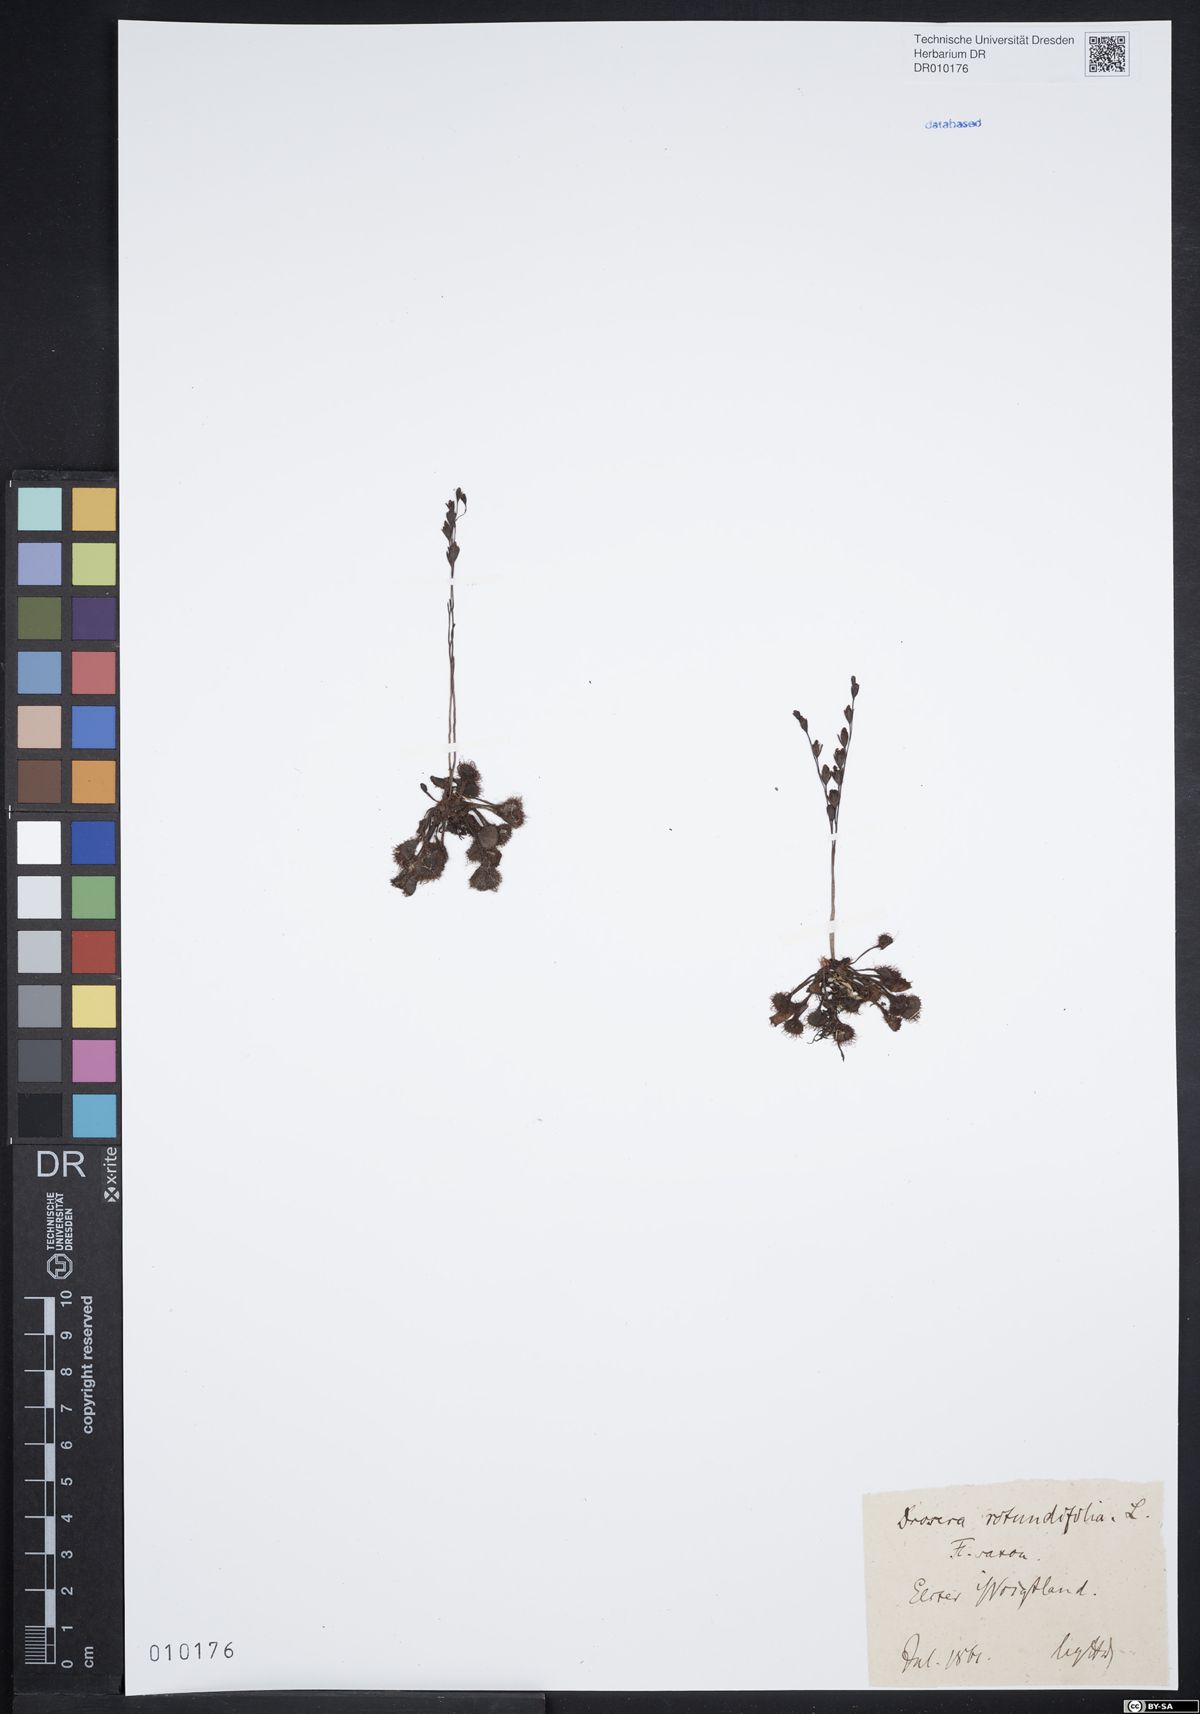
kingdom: Plantae
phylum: Tracheophyta
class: Magnoliopsida
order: Caryophyllales
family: Droseraceae
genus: Drosera
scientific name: Drosera rotundifolia
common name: Round-leaved sundew
